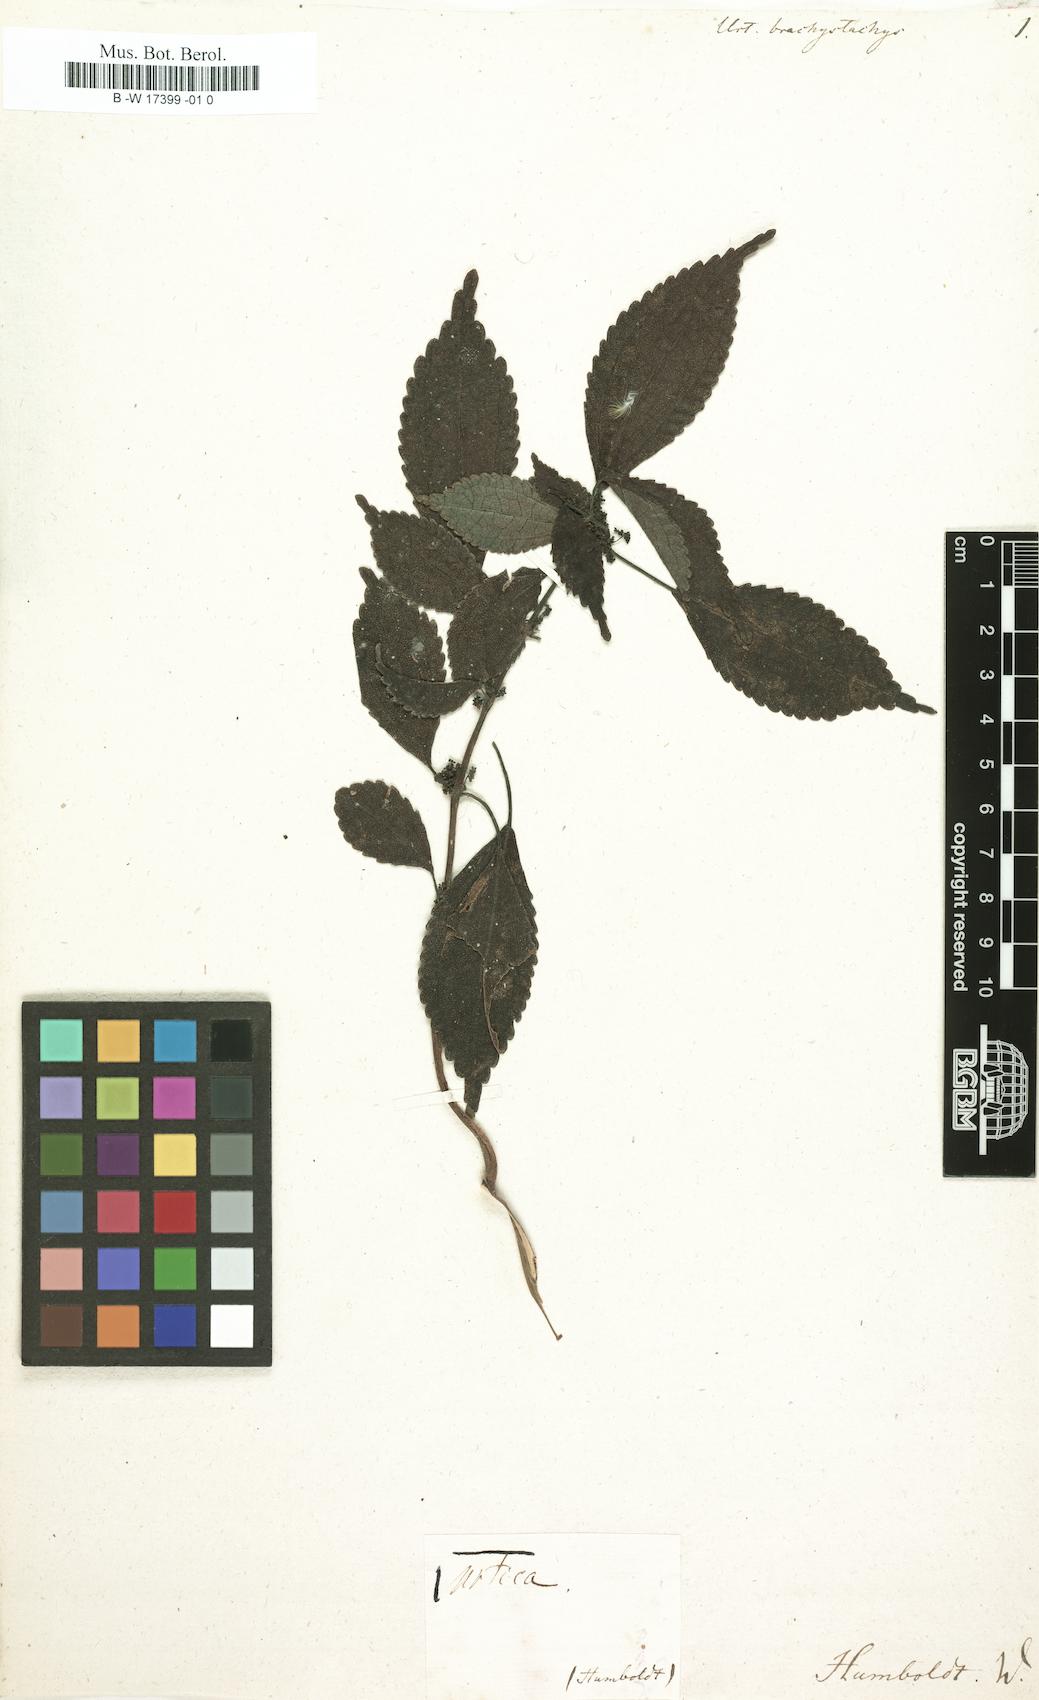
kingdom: Plantae
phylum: Tracheophyta
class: Magnoliopsida
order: Rosales
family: Urticaceae
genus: Urtica
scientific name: Urtica
